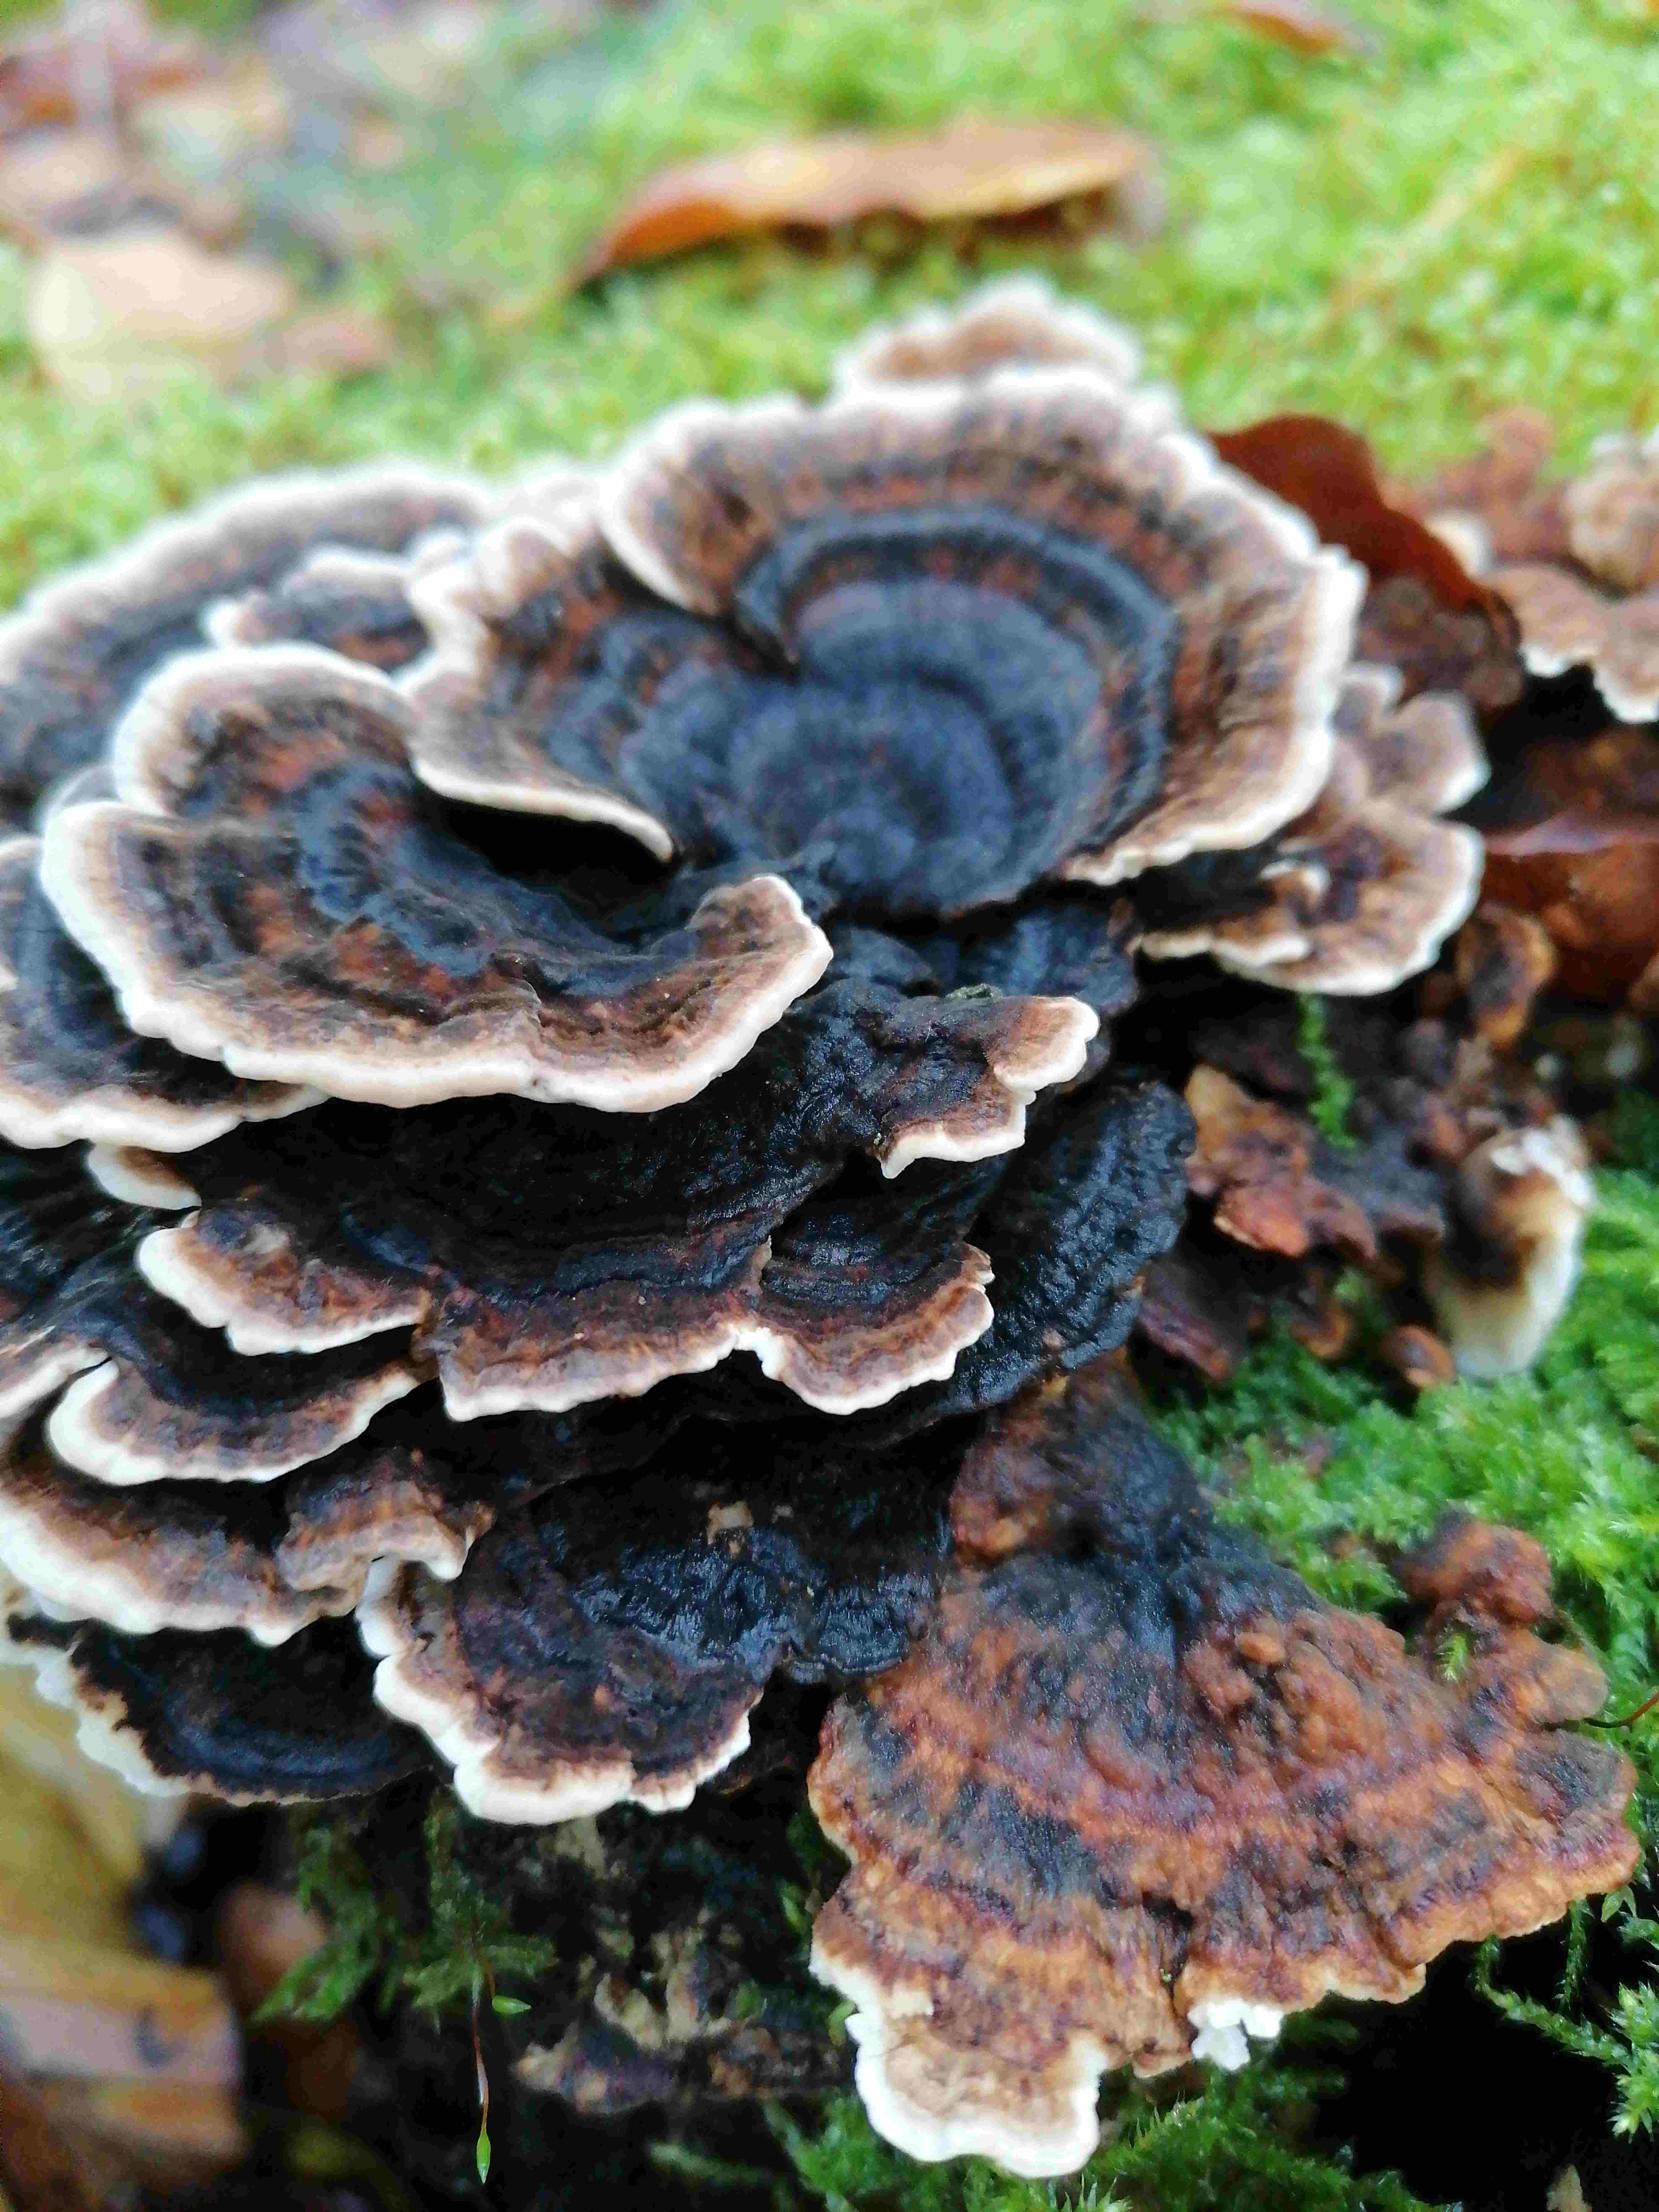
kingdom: Fungi
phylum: Basidiomycota
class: Agaricomycetes
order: Polyporales
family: Polyporaceae
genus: Trametes
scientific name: Trametes versicolor
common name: broget læderporesvamp
